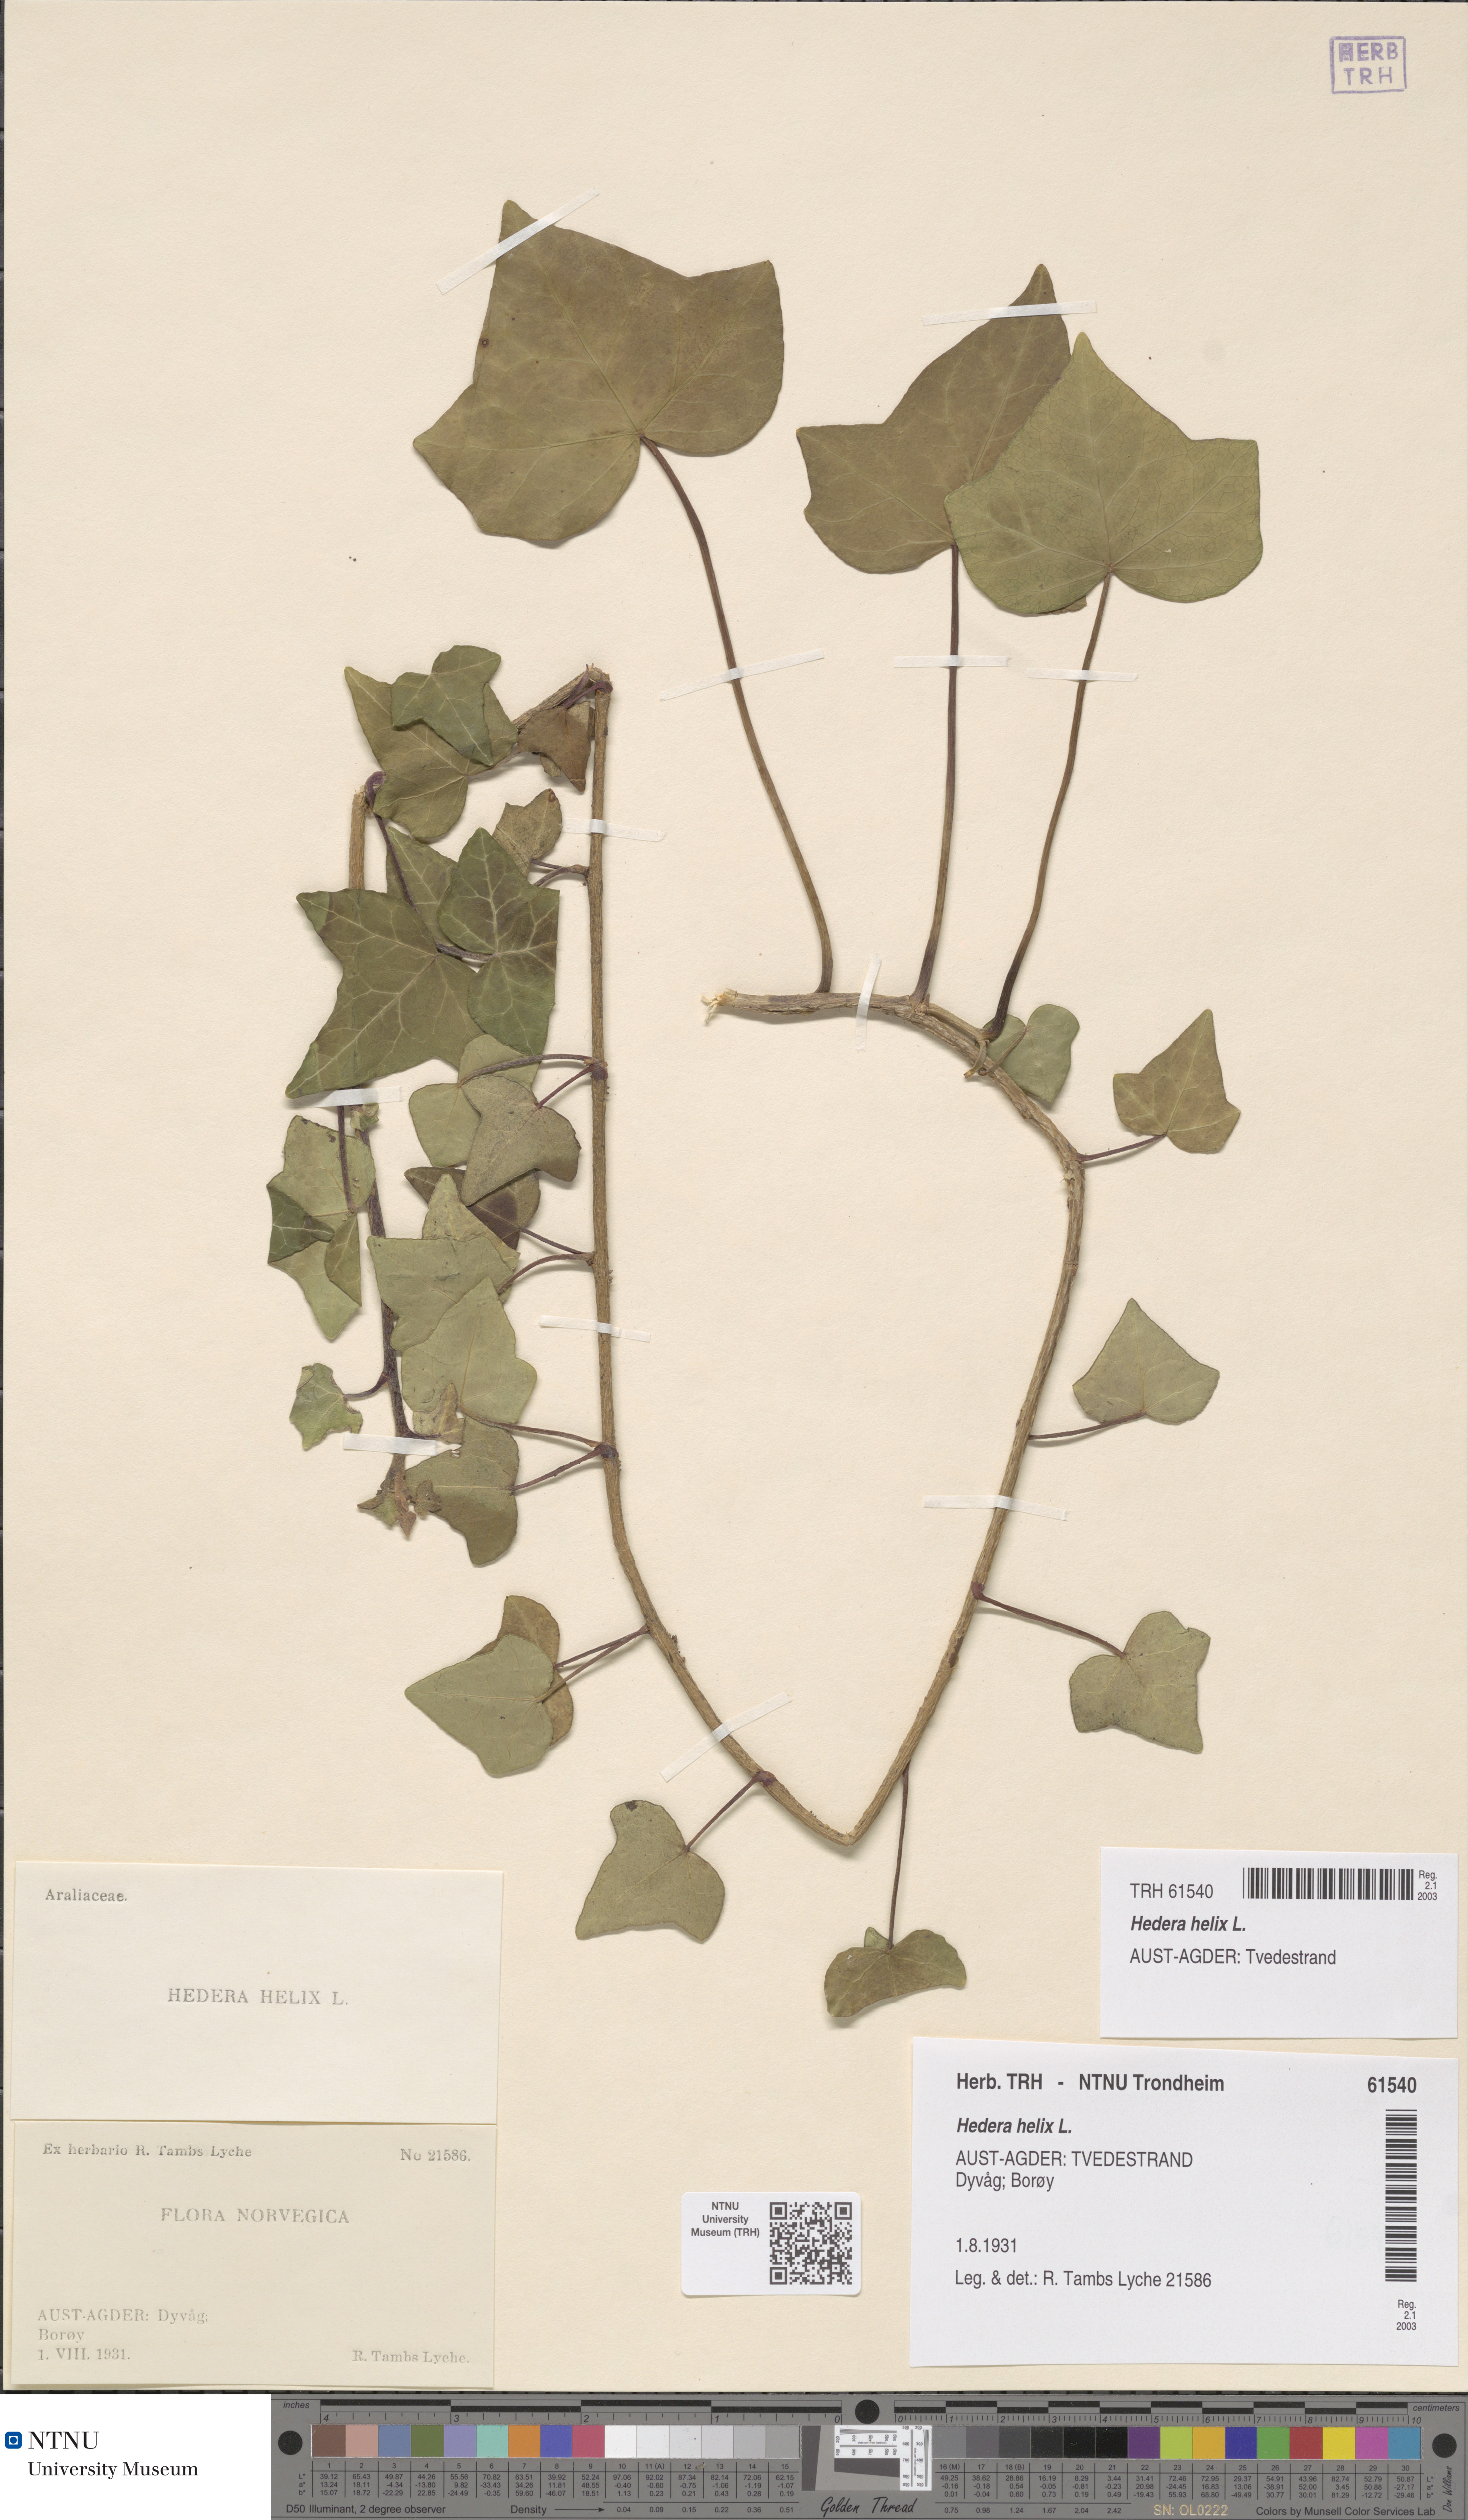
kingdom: Plantae
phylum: Tracheophyta
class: Magnoliopsida
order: Apiales
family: Araliaceae
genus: Hedera
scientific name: Hedera helix
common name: Ivy
